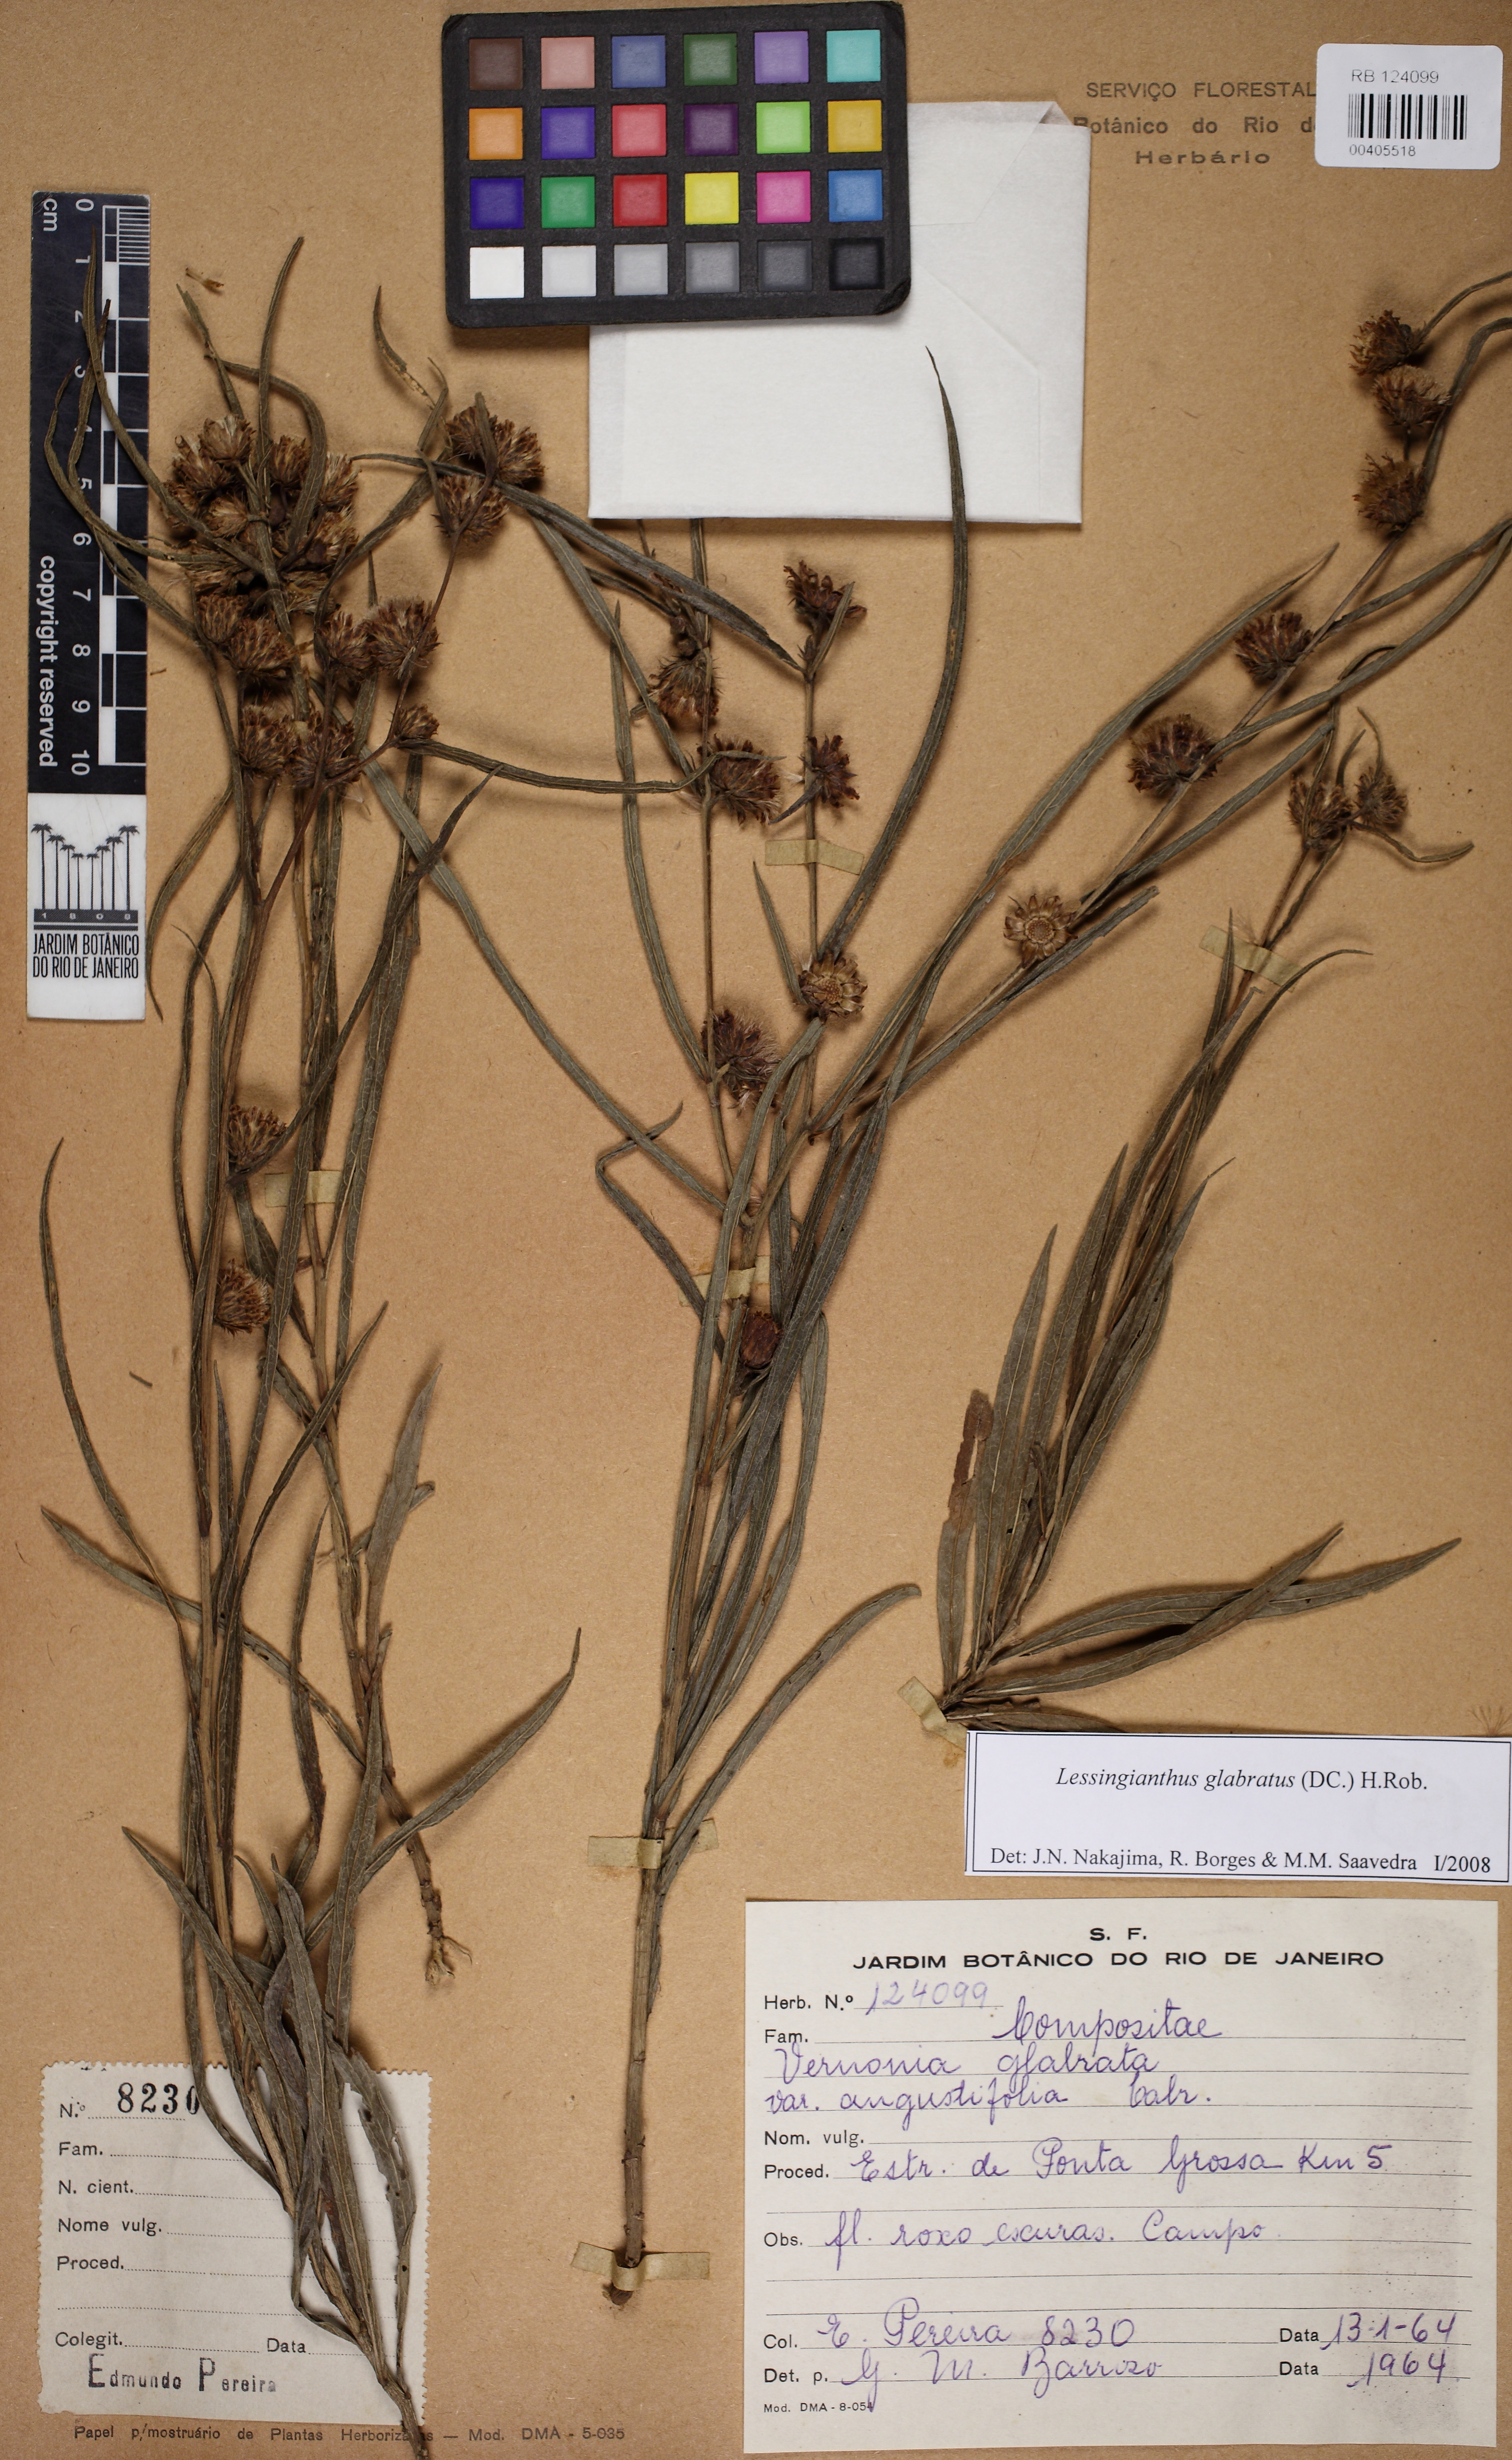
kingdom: Plantae
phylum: Tracheophyta
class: Magnoliopsida
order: Asterales
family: Asteraceae
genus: Lessingianthus
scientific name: Lessingianthus glabratus
